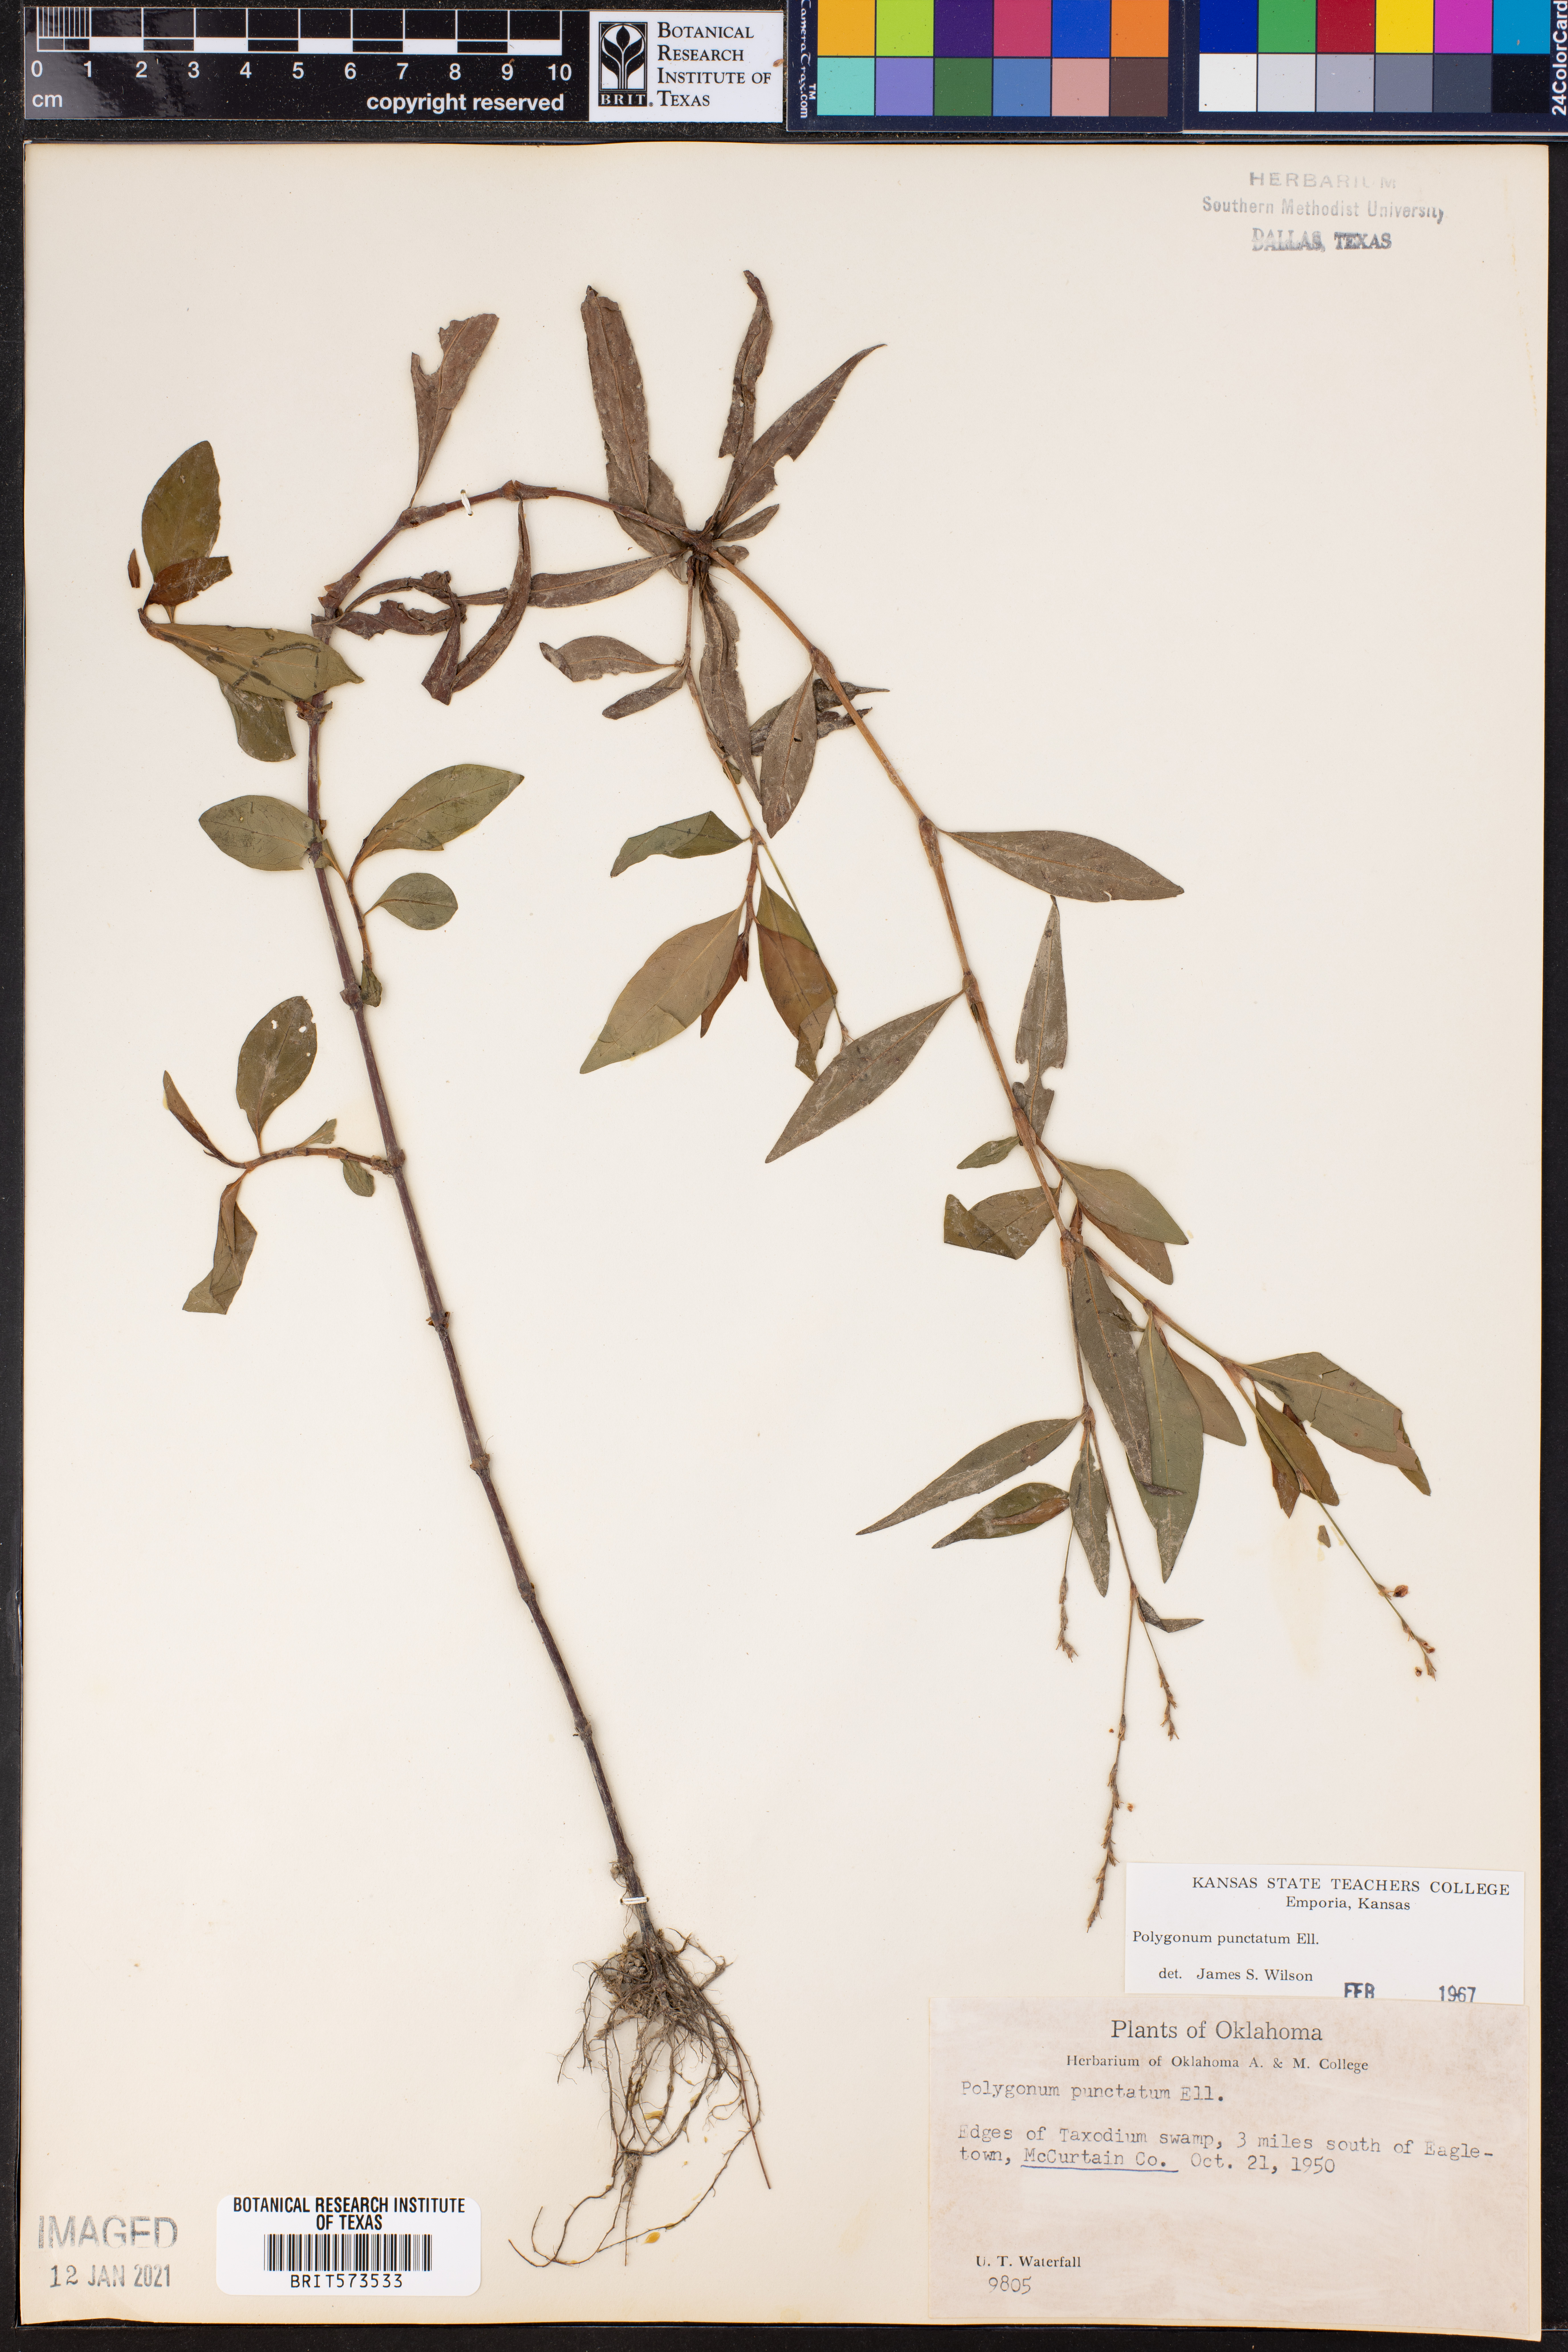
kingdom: Plantae
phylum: Tracheophyta
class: Magnoliopsida
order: Caryophyllales
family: Polygonaceae
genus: Persicaria
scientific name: Persicaria punctata
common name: Dotted smartweed
